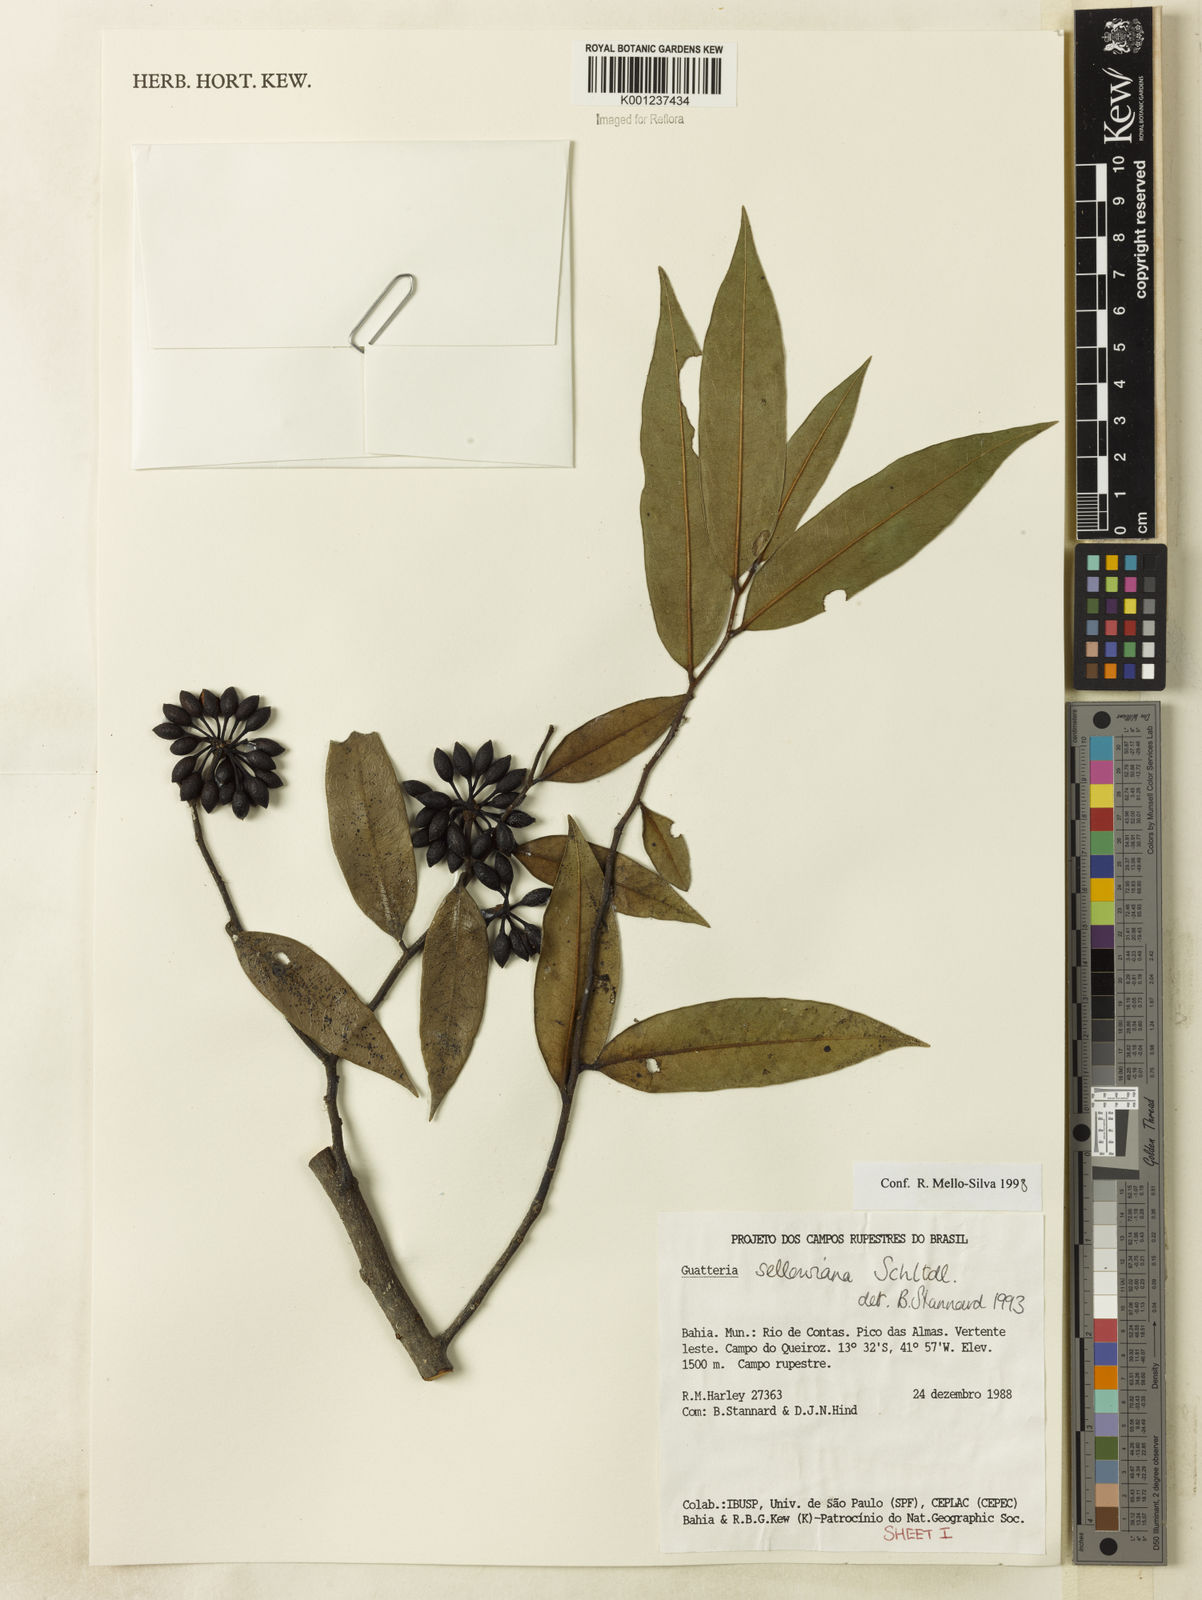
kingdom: Plantae
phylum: Tracheophyta
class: Magnoliopsida
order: Magnoliales
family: Annonaceae
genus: Guatteria
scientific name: Guatteria sellowiana
